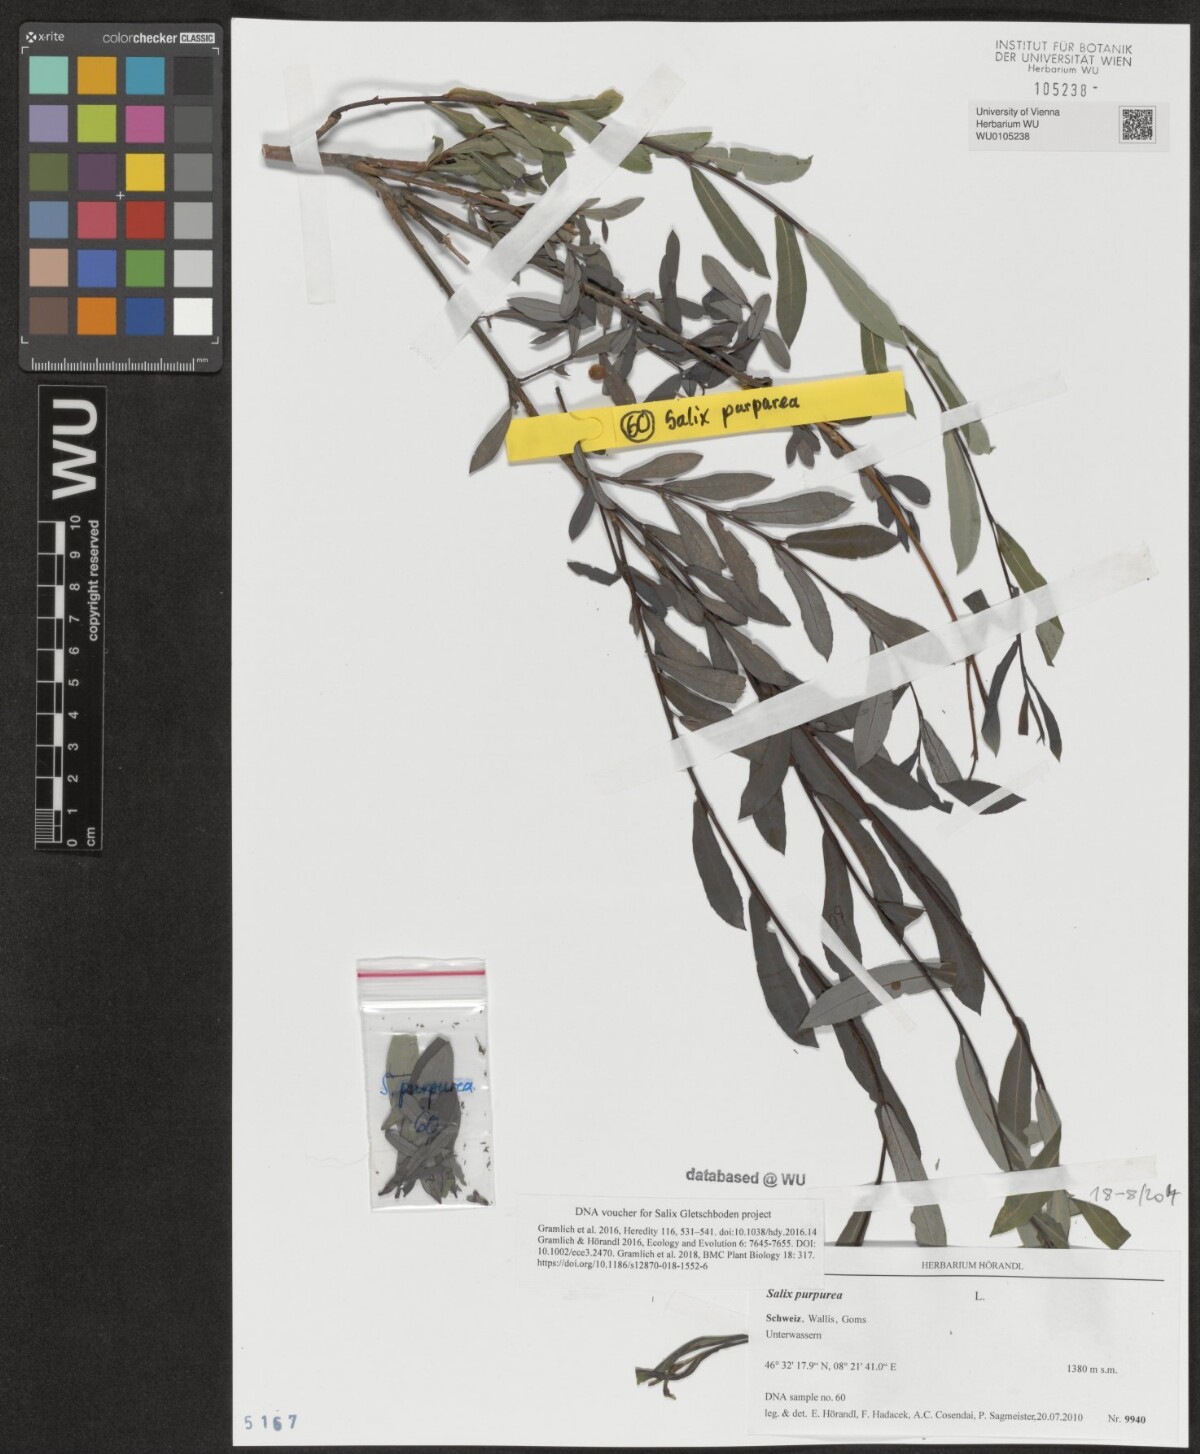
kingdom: Plantae
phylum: Tracheophyta
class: Magnoliopsida
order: Malpighiales
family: Salicaceae
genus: Salix
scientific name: Salix purpurea
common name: Purple willow
